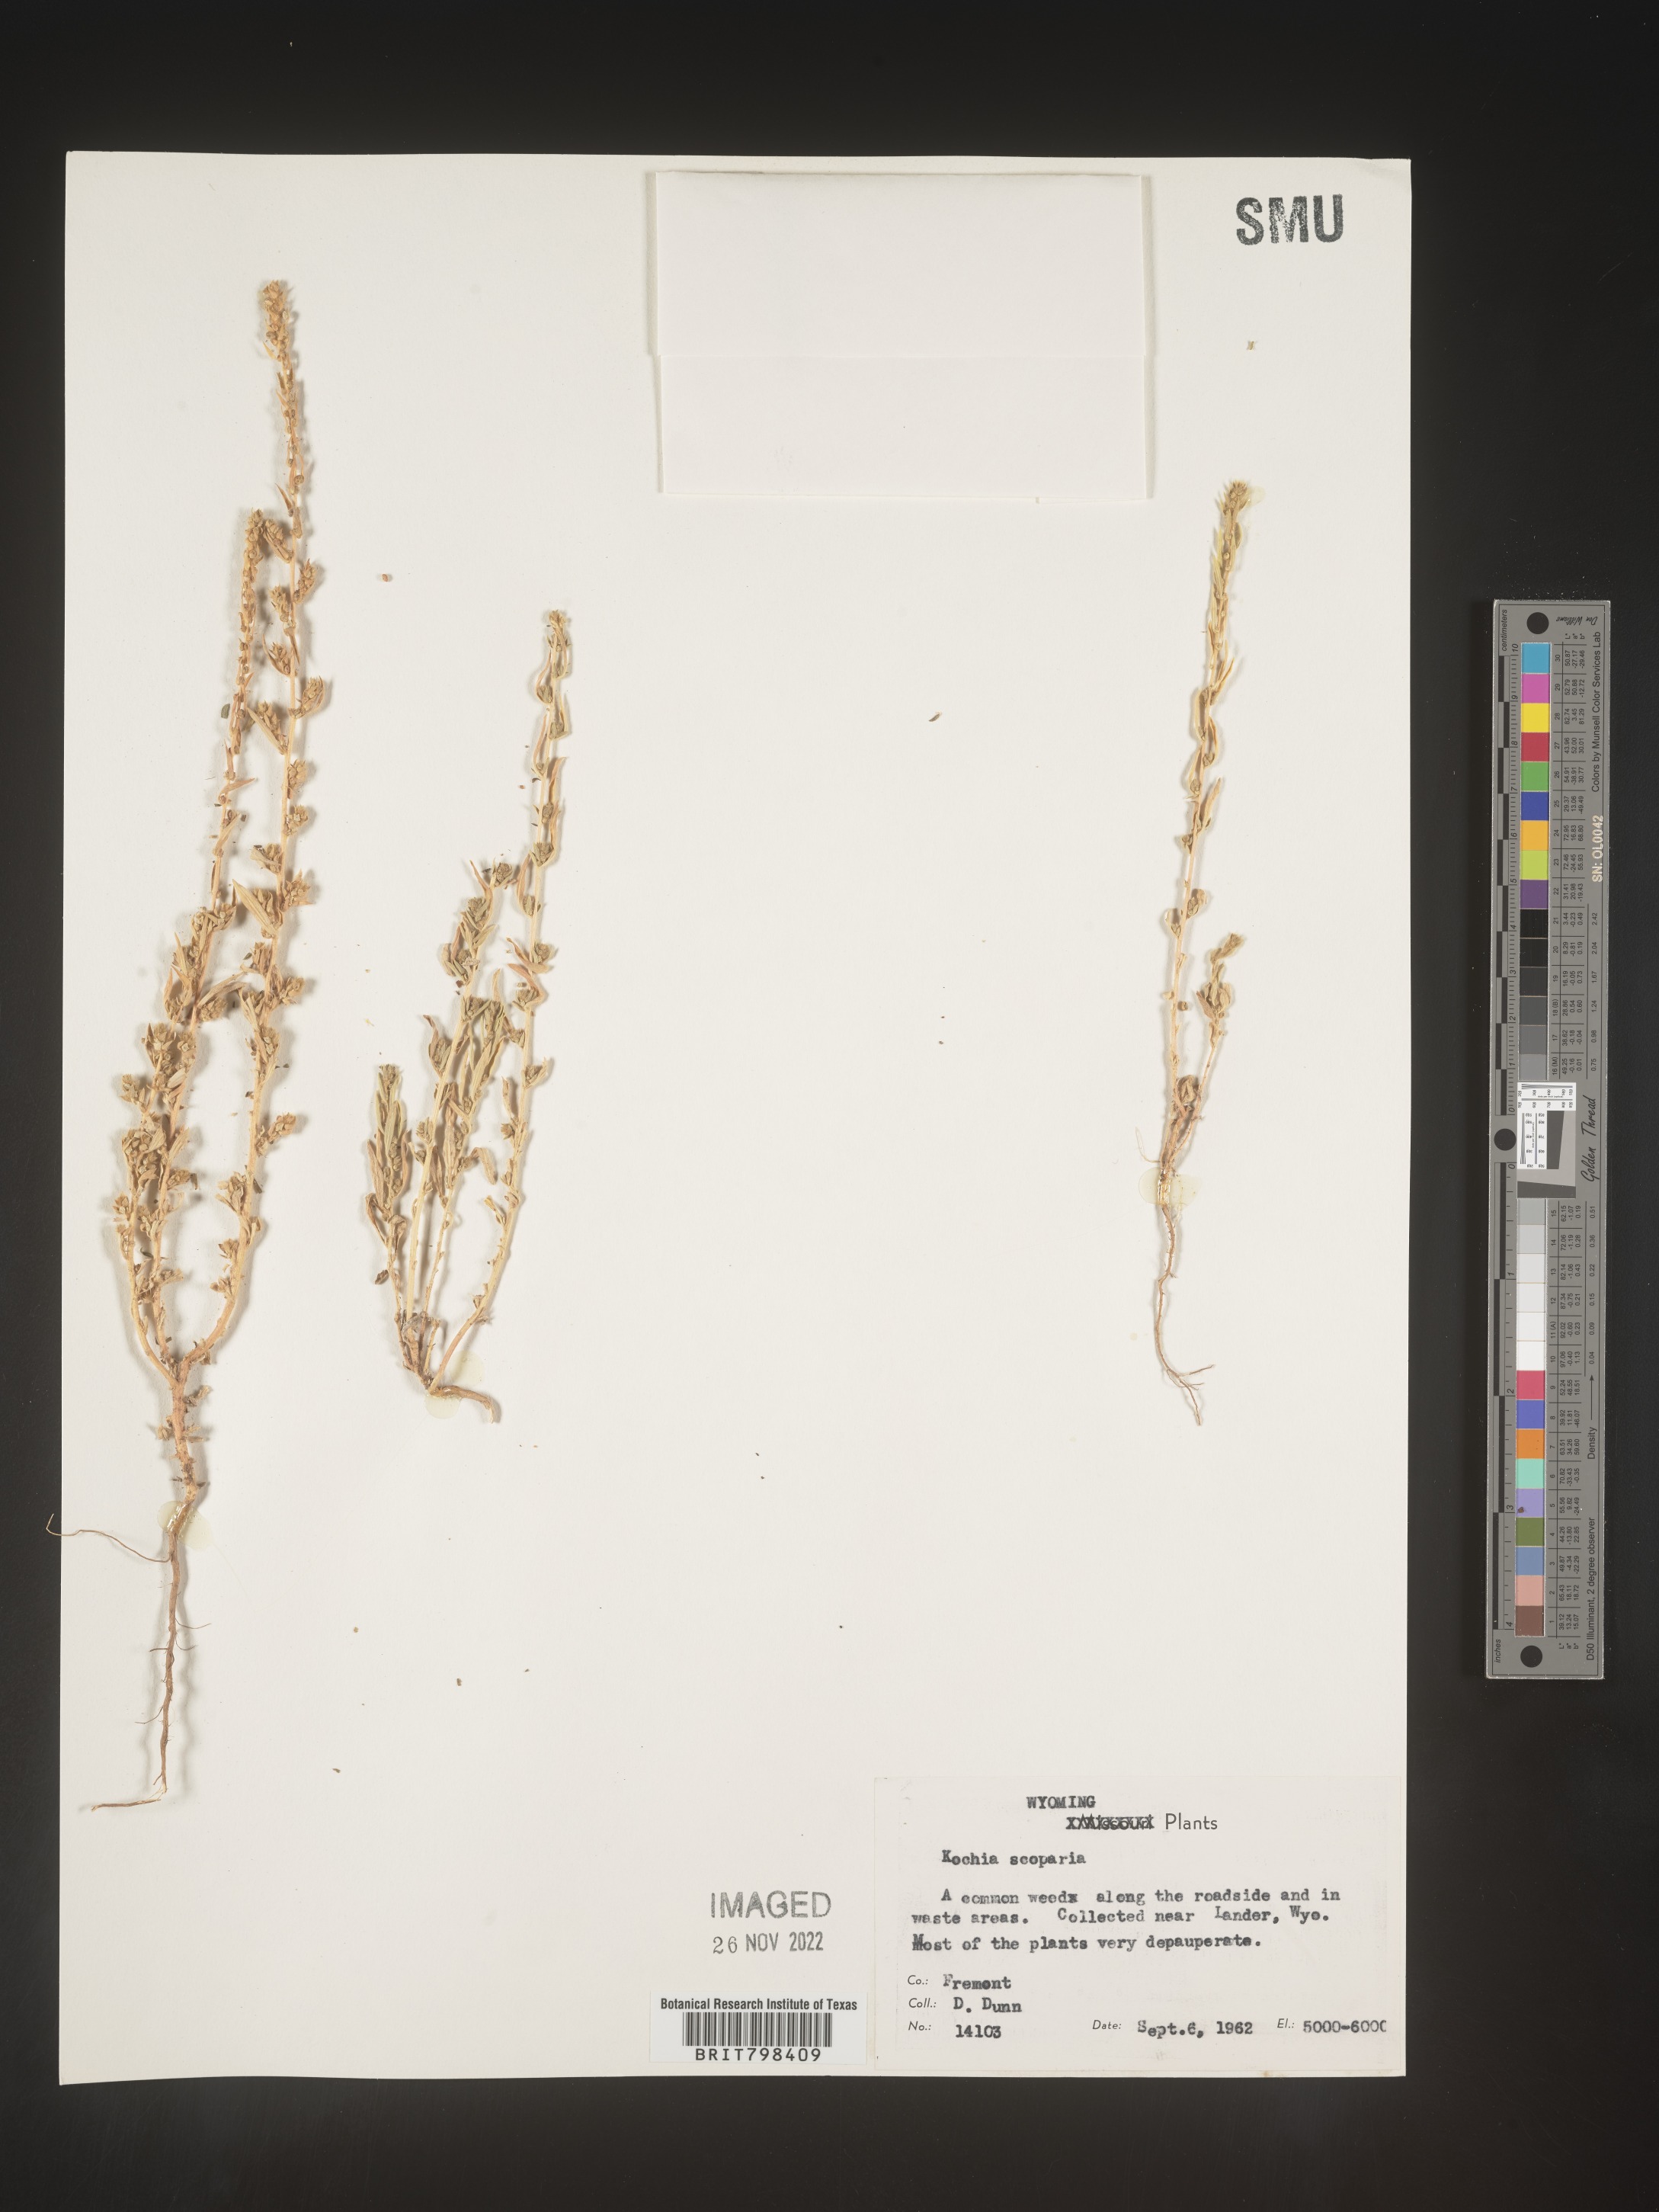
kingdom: Plantae
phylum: Tracheophyta
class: Magnoliopsida
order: Caryophyllales
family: Amaranthaceae
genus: Bassia
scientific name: Bassia scoparia
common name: Belvedere
